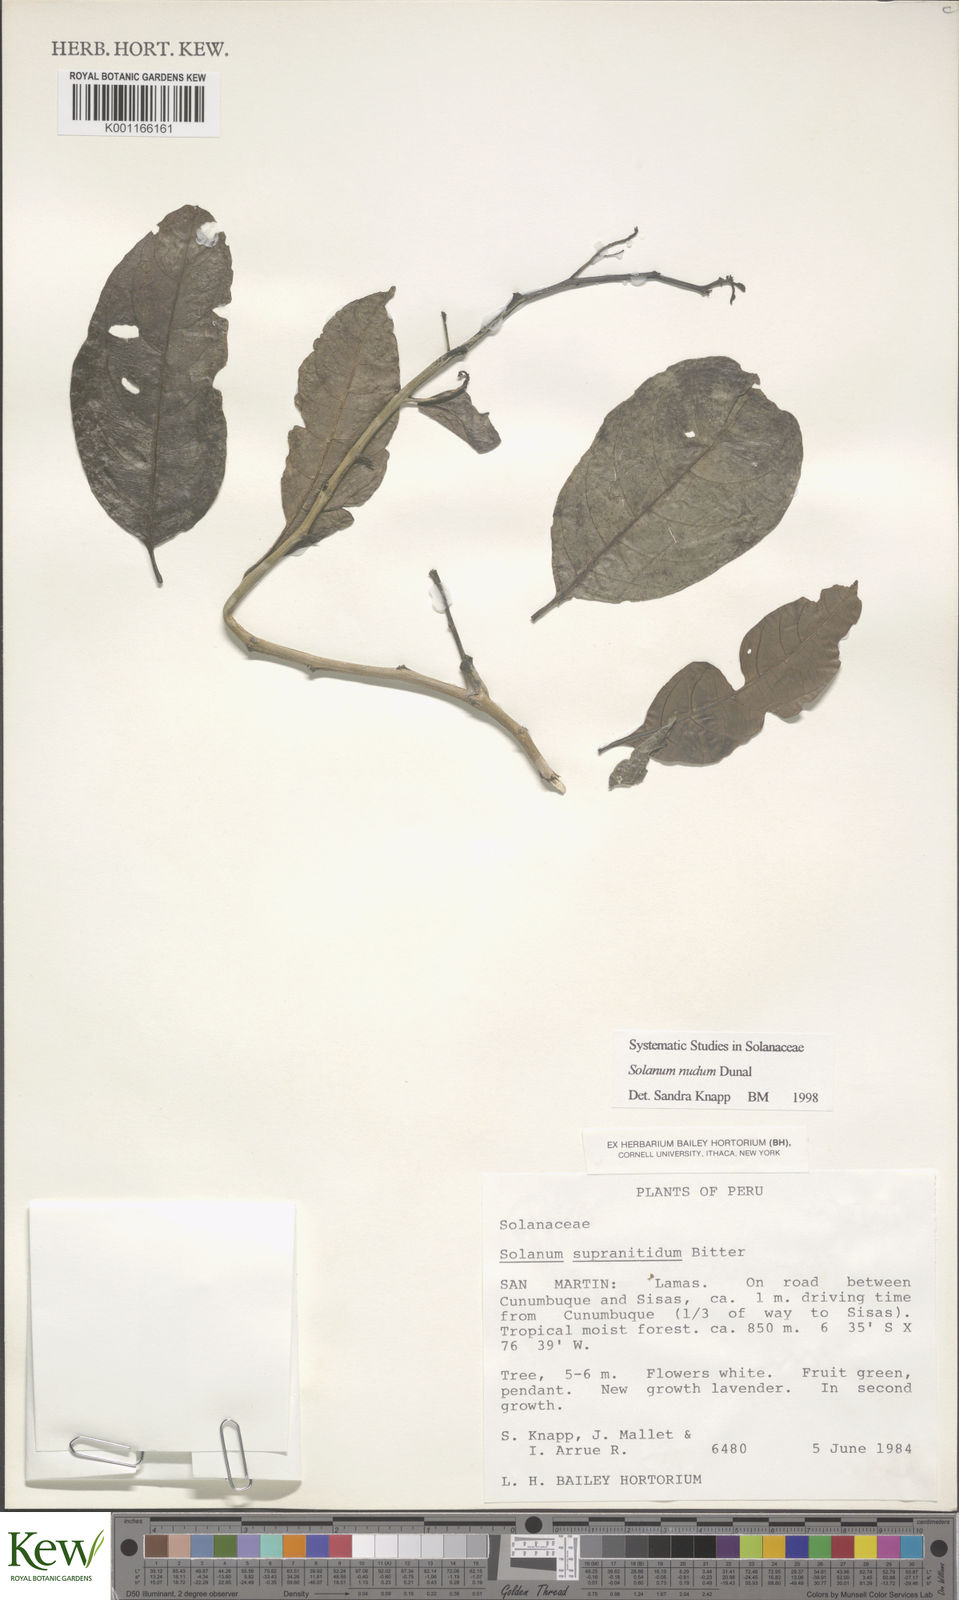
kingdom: Plantae
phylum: Tracheophyta
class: Magnoliopsida
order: Solanales
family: Solanaceae
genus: Solanum
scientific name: Solanum nudum
